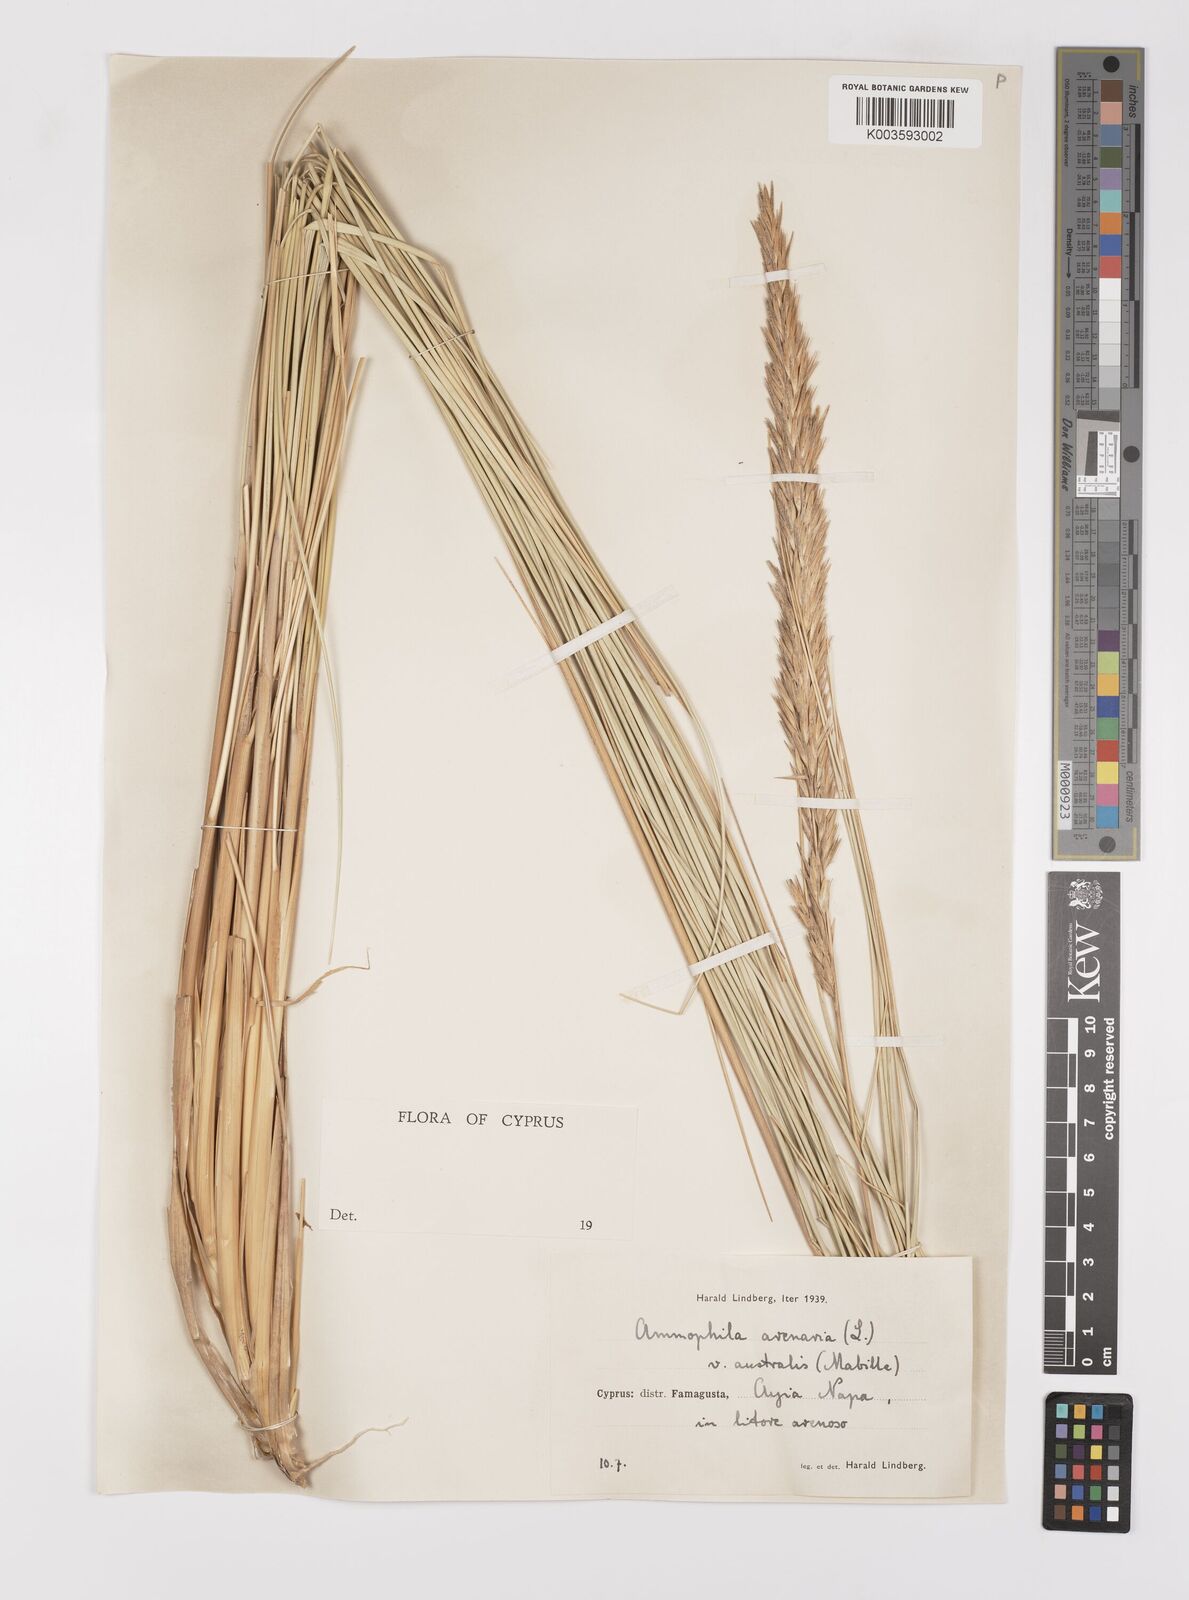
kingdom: Plantae
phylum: Tracheophyta
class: Liliopsida
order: Poales
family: Poaceae
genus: Calamagrostis
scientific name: Calamagrostis arenaria
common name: European beachgrass
